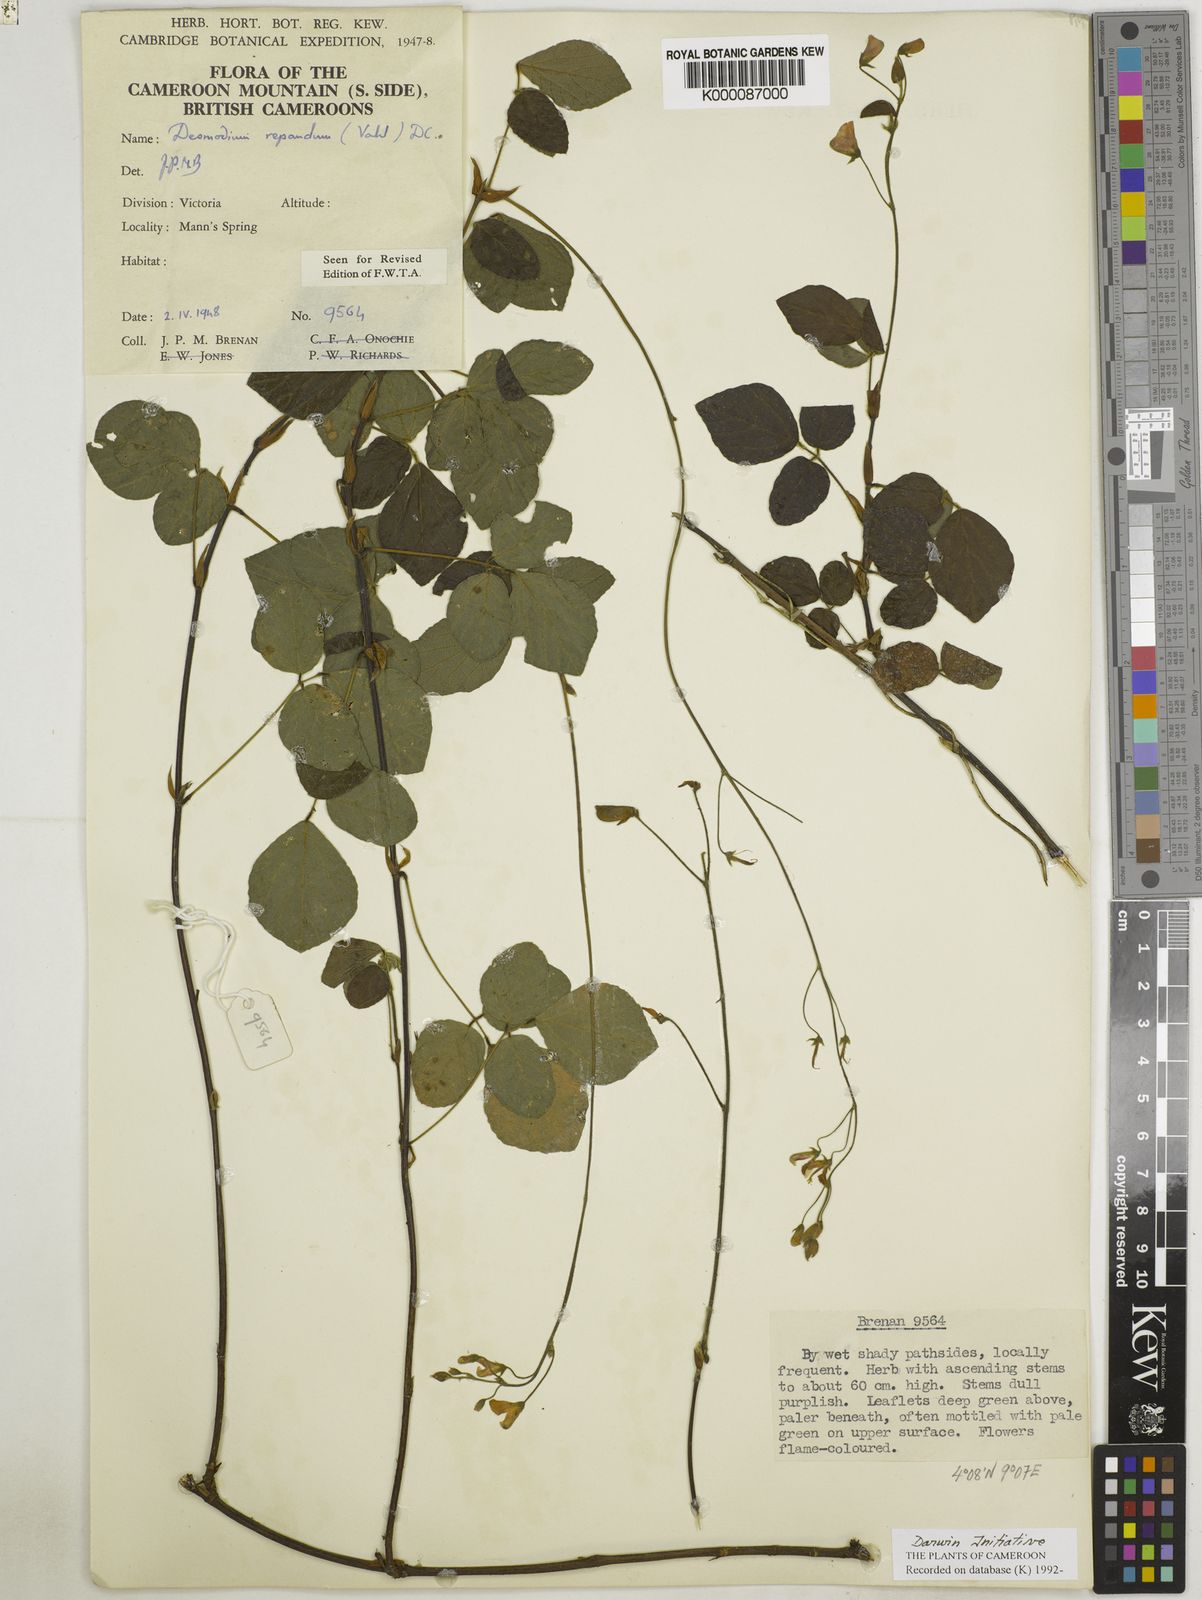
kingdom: Plantae
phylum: Tracheophyta
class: Magnoliopsida
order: Fabales
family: Fabaceae
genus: Desmodium
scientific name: Desmodium
